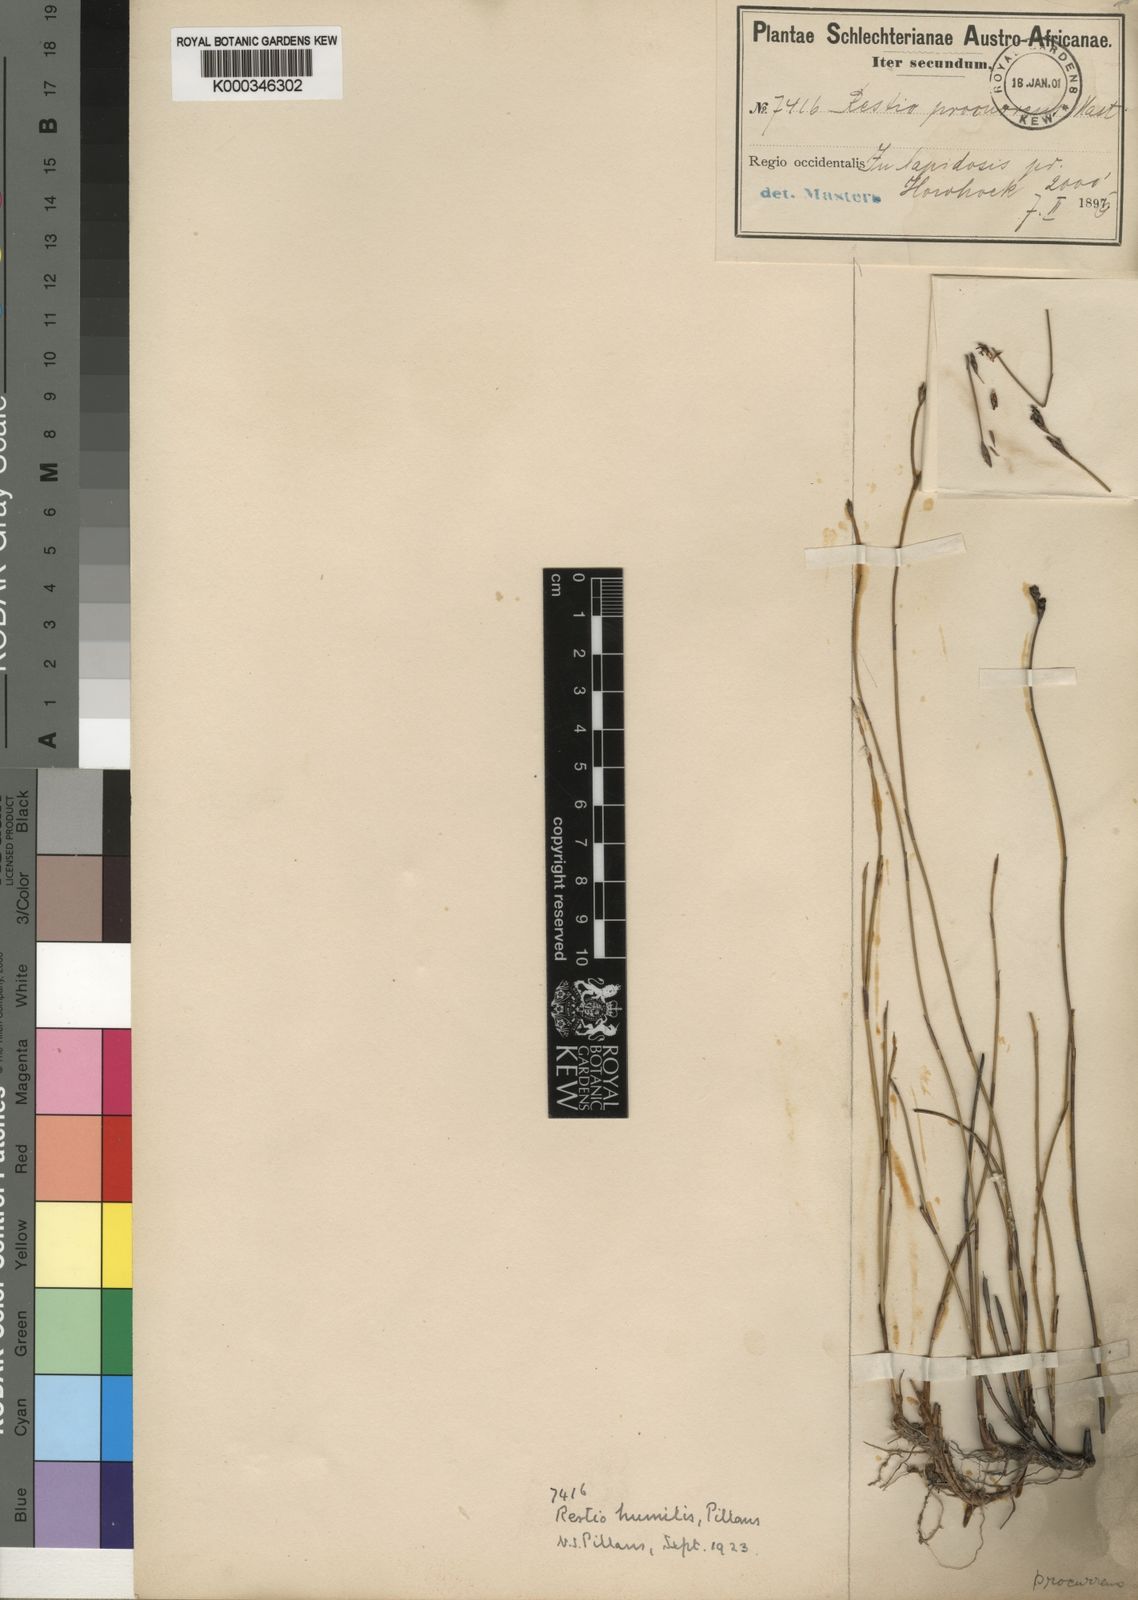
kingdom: Plantae
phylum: Tracheophyta
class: Liliopsida
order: Poales
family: Restionaceae
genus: Restio
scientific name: Restio wallichii
